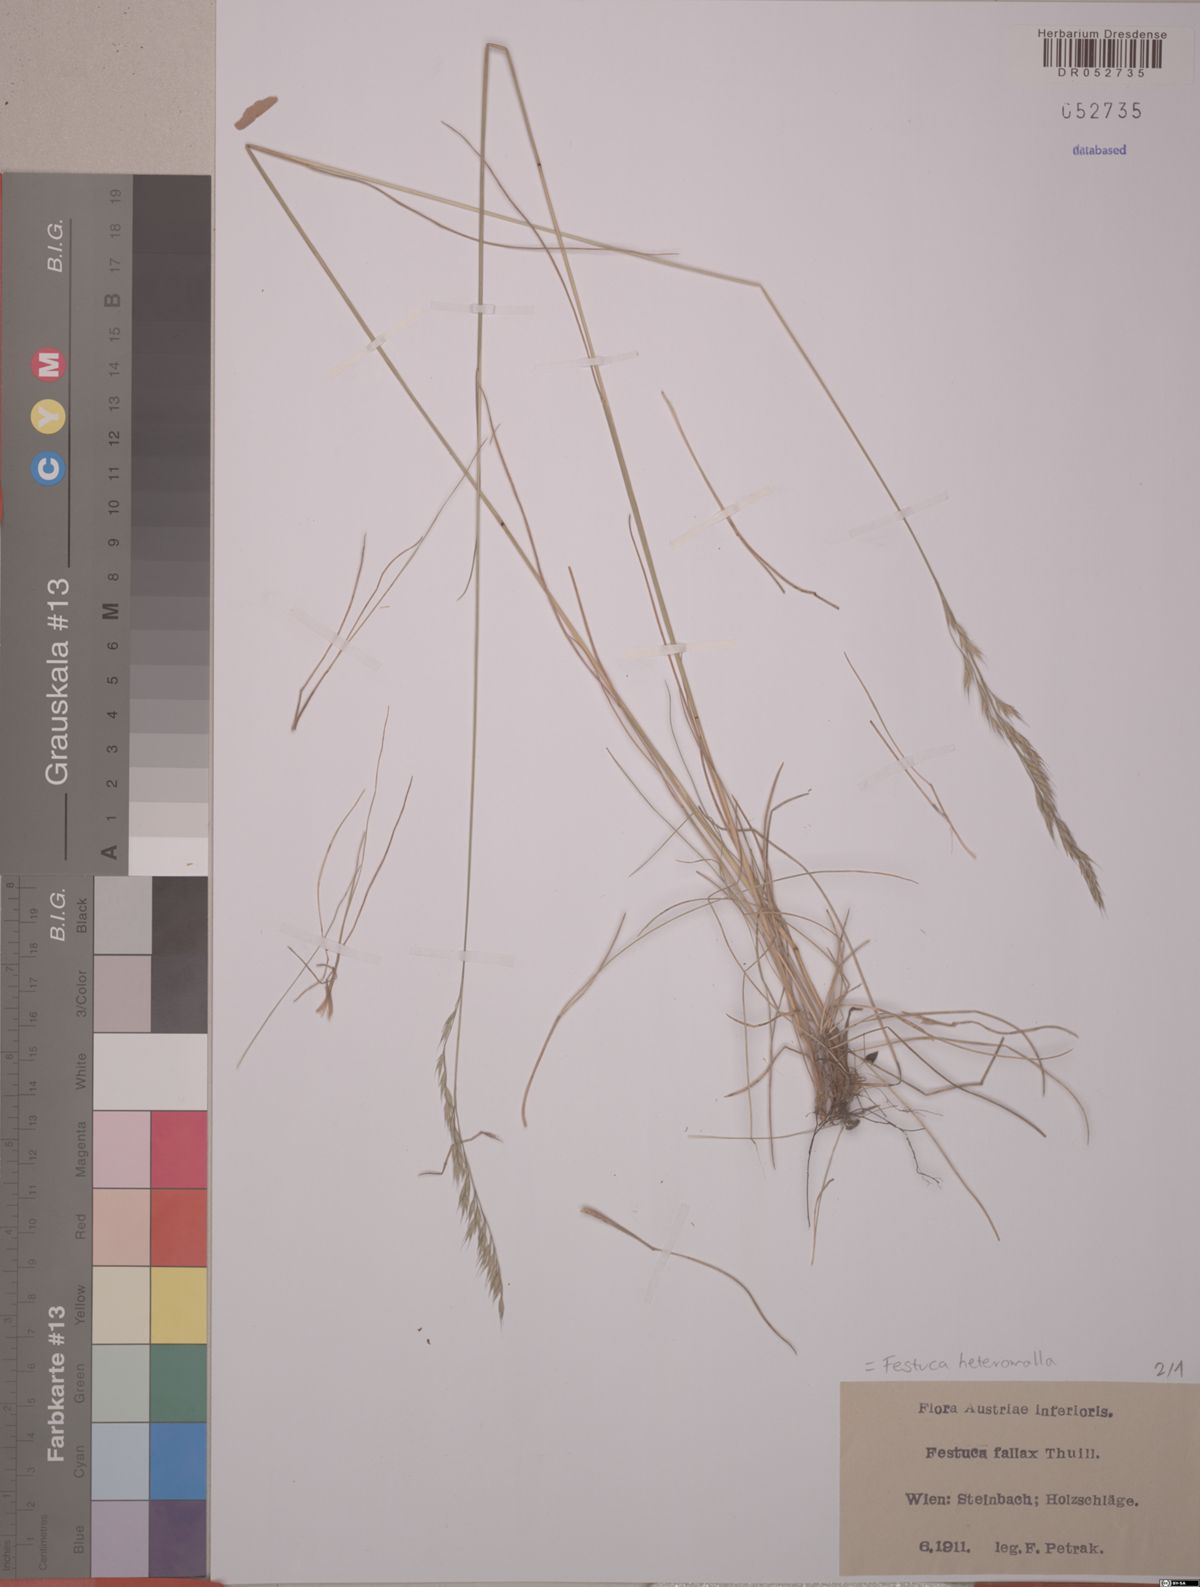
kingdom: Plantae
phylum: Tracheophyta
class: Liliopsida
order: Poales
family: Poaceae
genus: Festuca
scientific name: Festuca heteromalla
